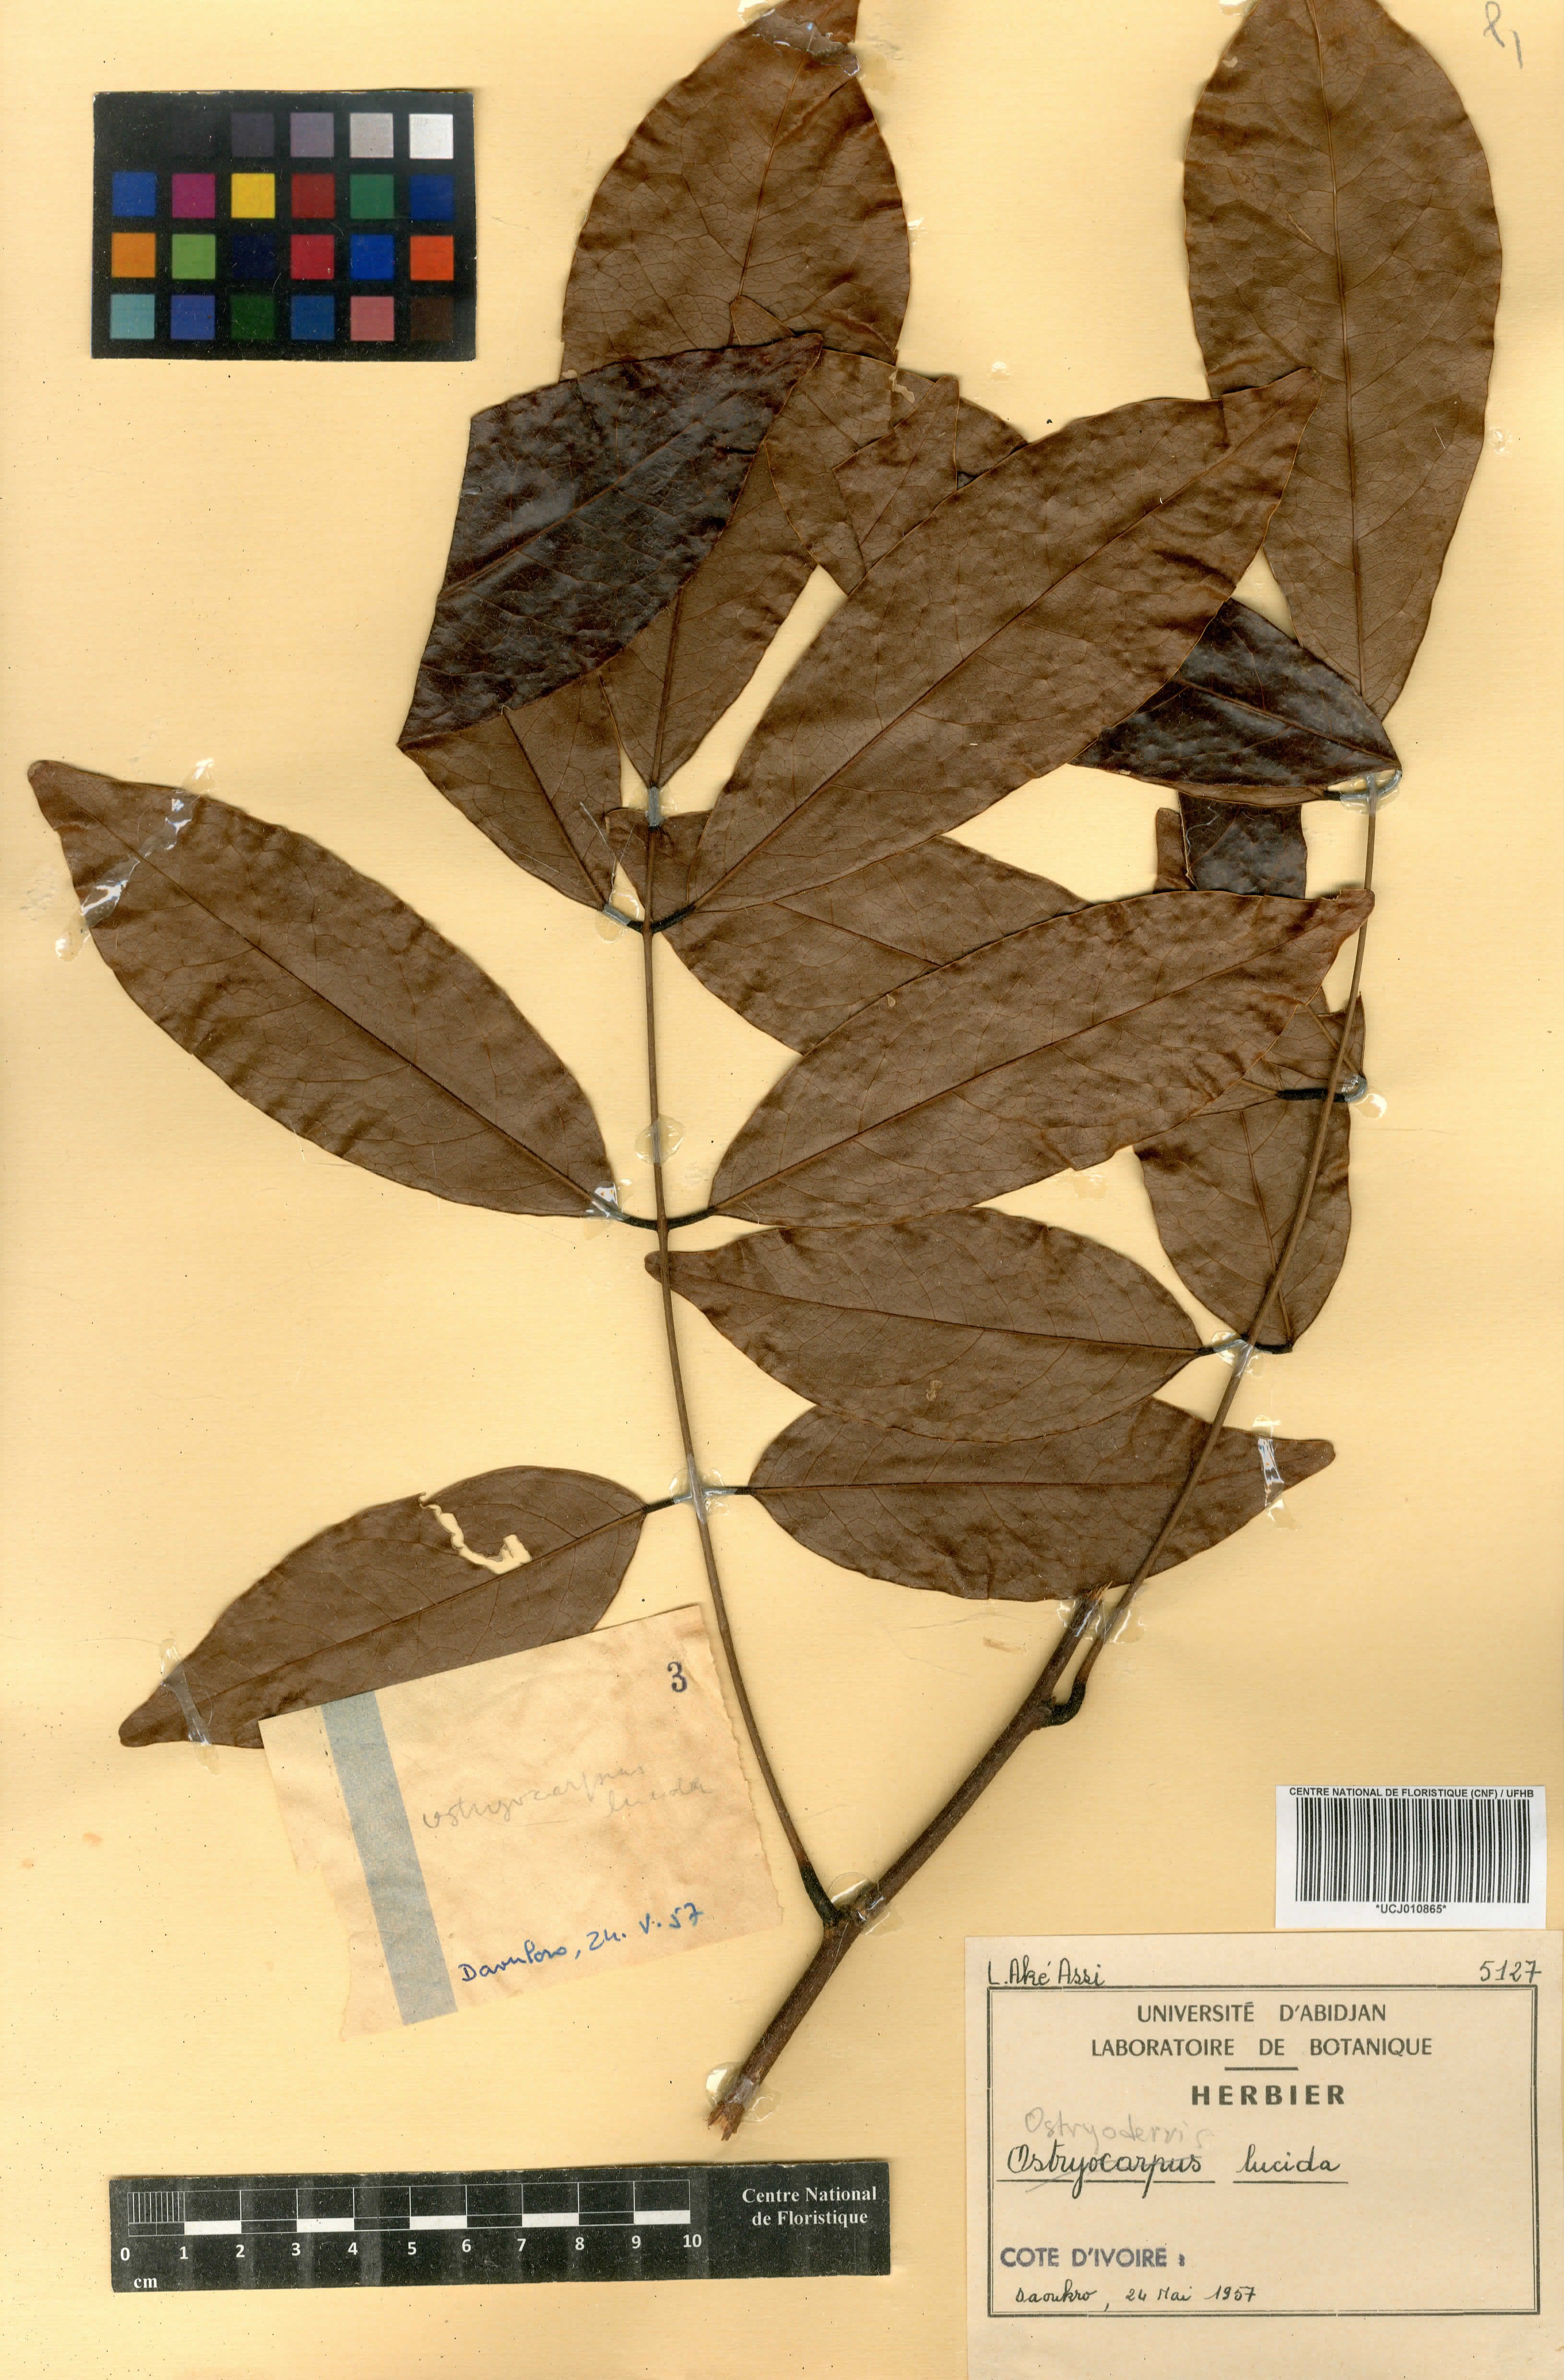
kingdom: Plantae
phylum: Tracheophyta
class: Magnoliopsida
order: Fabales
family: Fabaceae
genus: Aganope
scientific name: Aganope lucida
